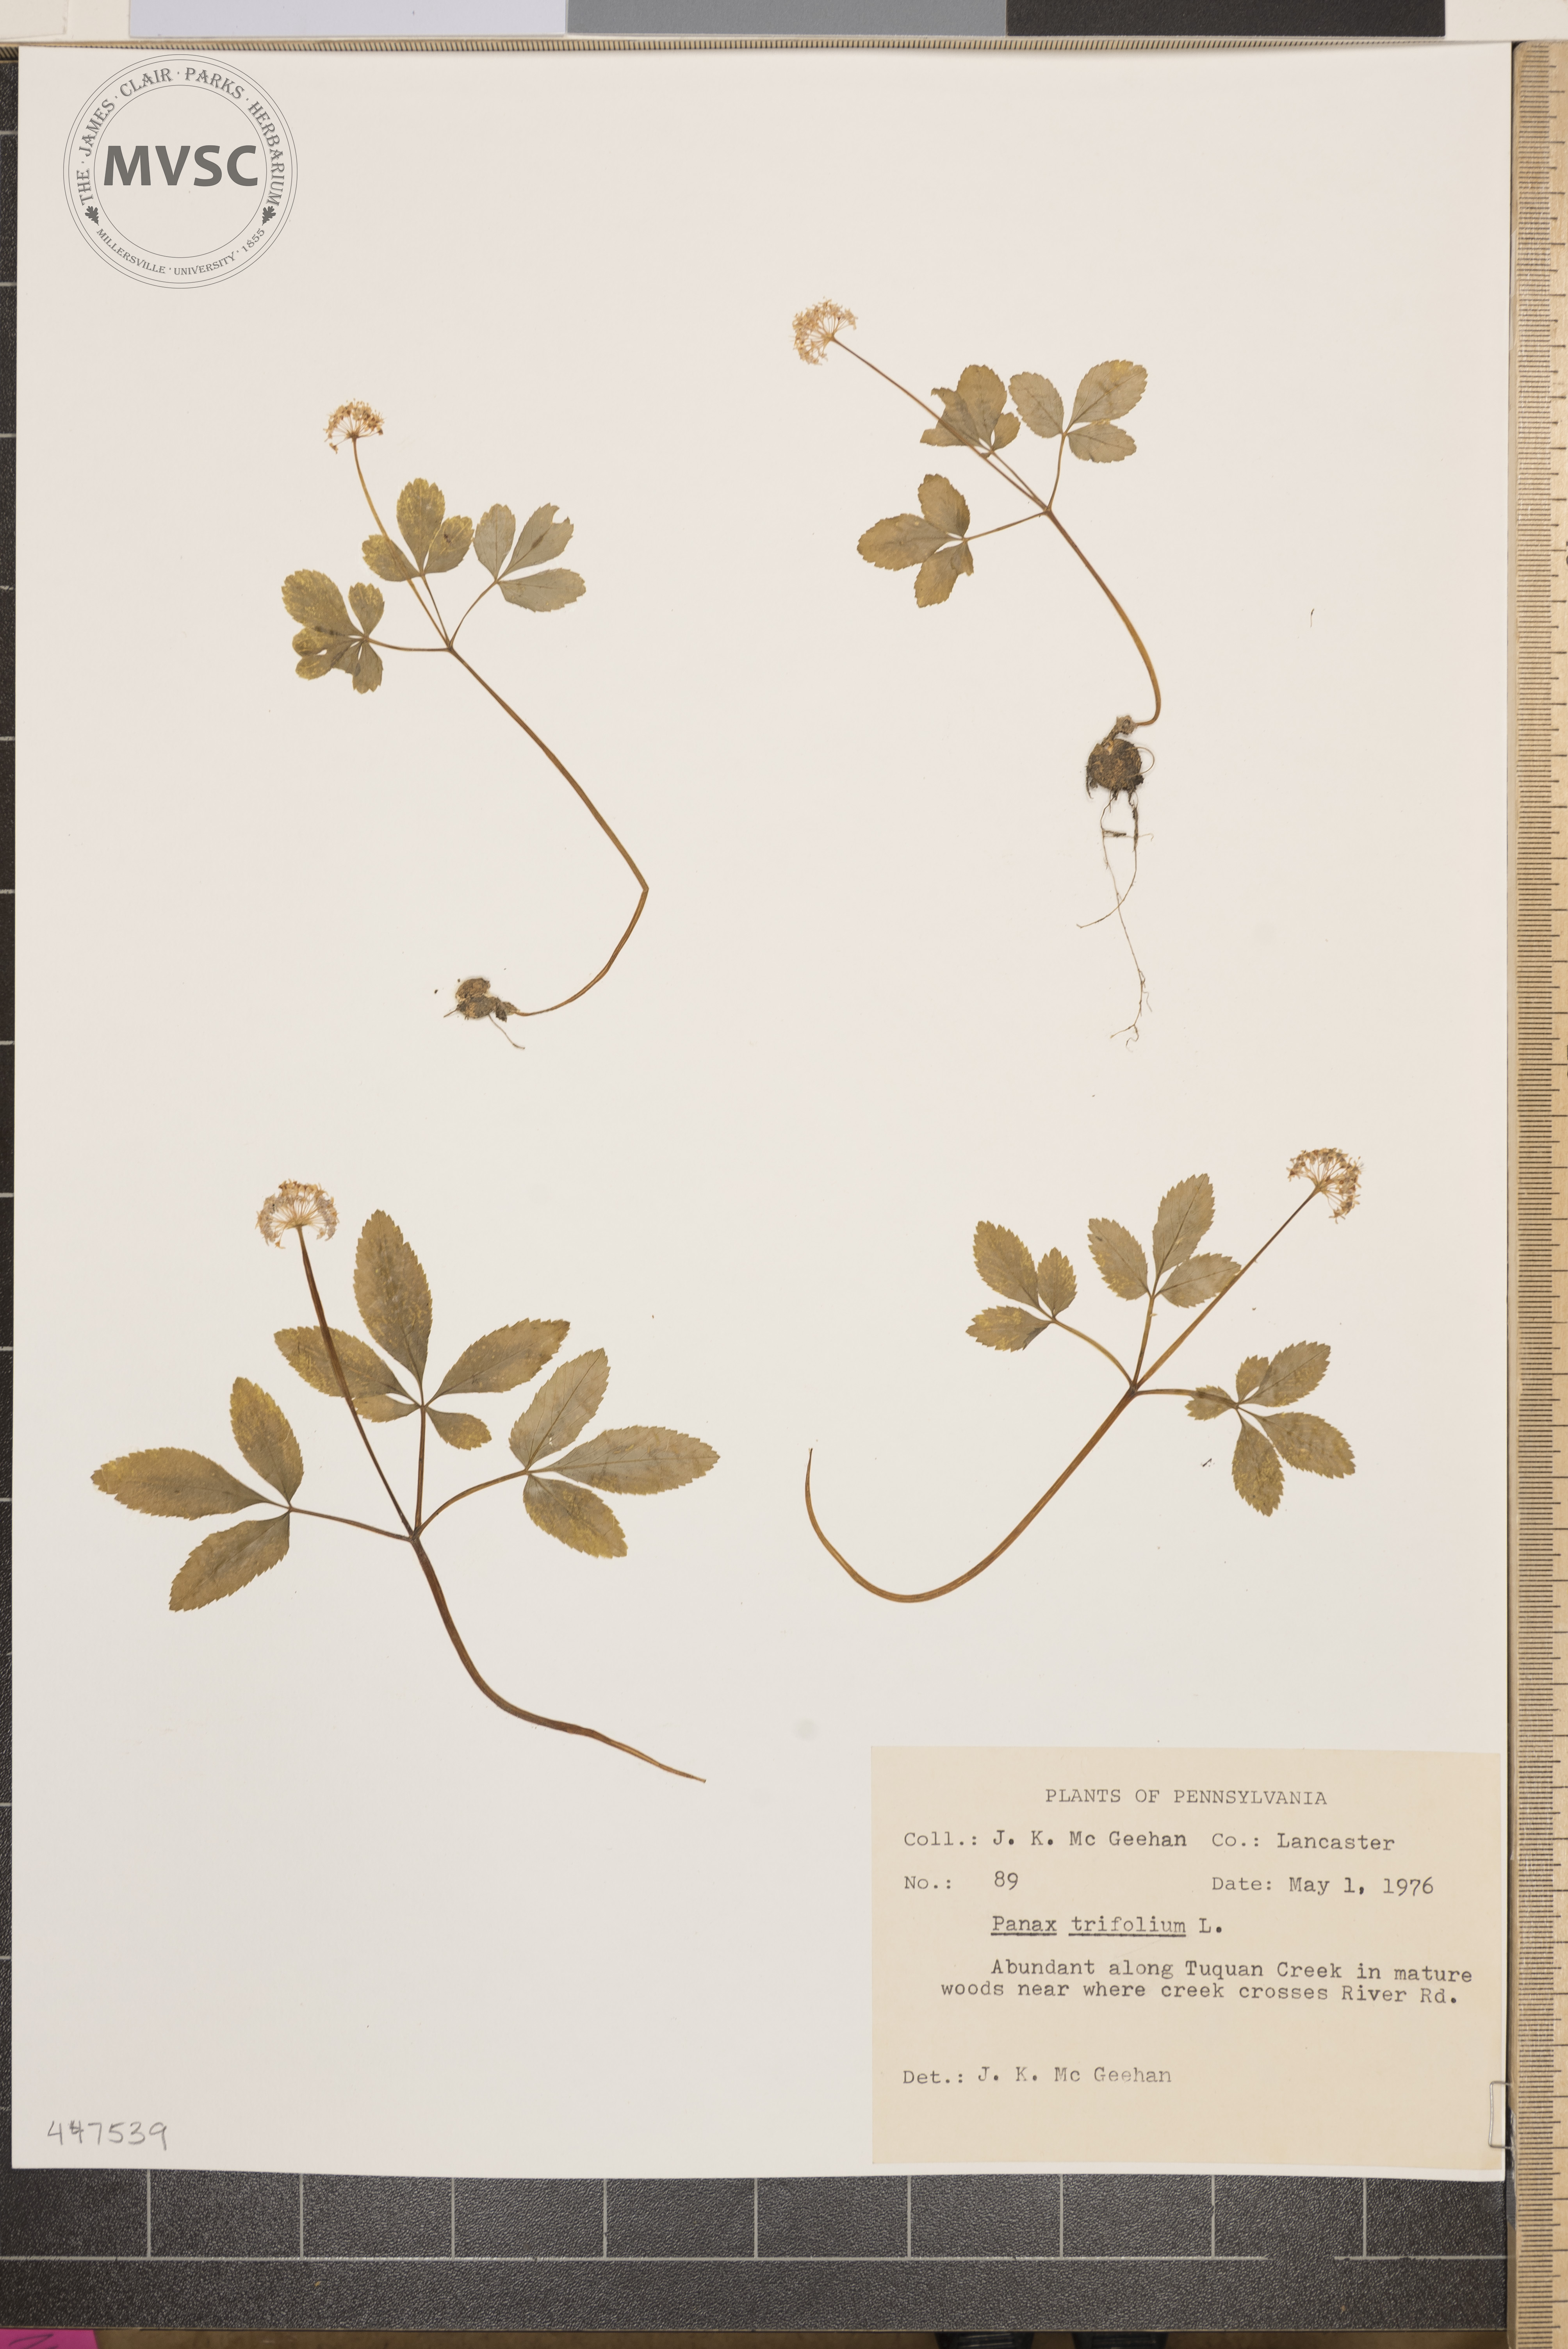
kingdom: Plantae
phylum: Tracheophyta
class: Magnoliopsida
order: Apiales
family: Araliaceae
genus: Panax
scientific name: Panax trifolius
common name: Dwarf ginseng
